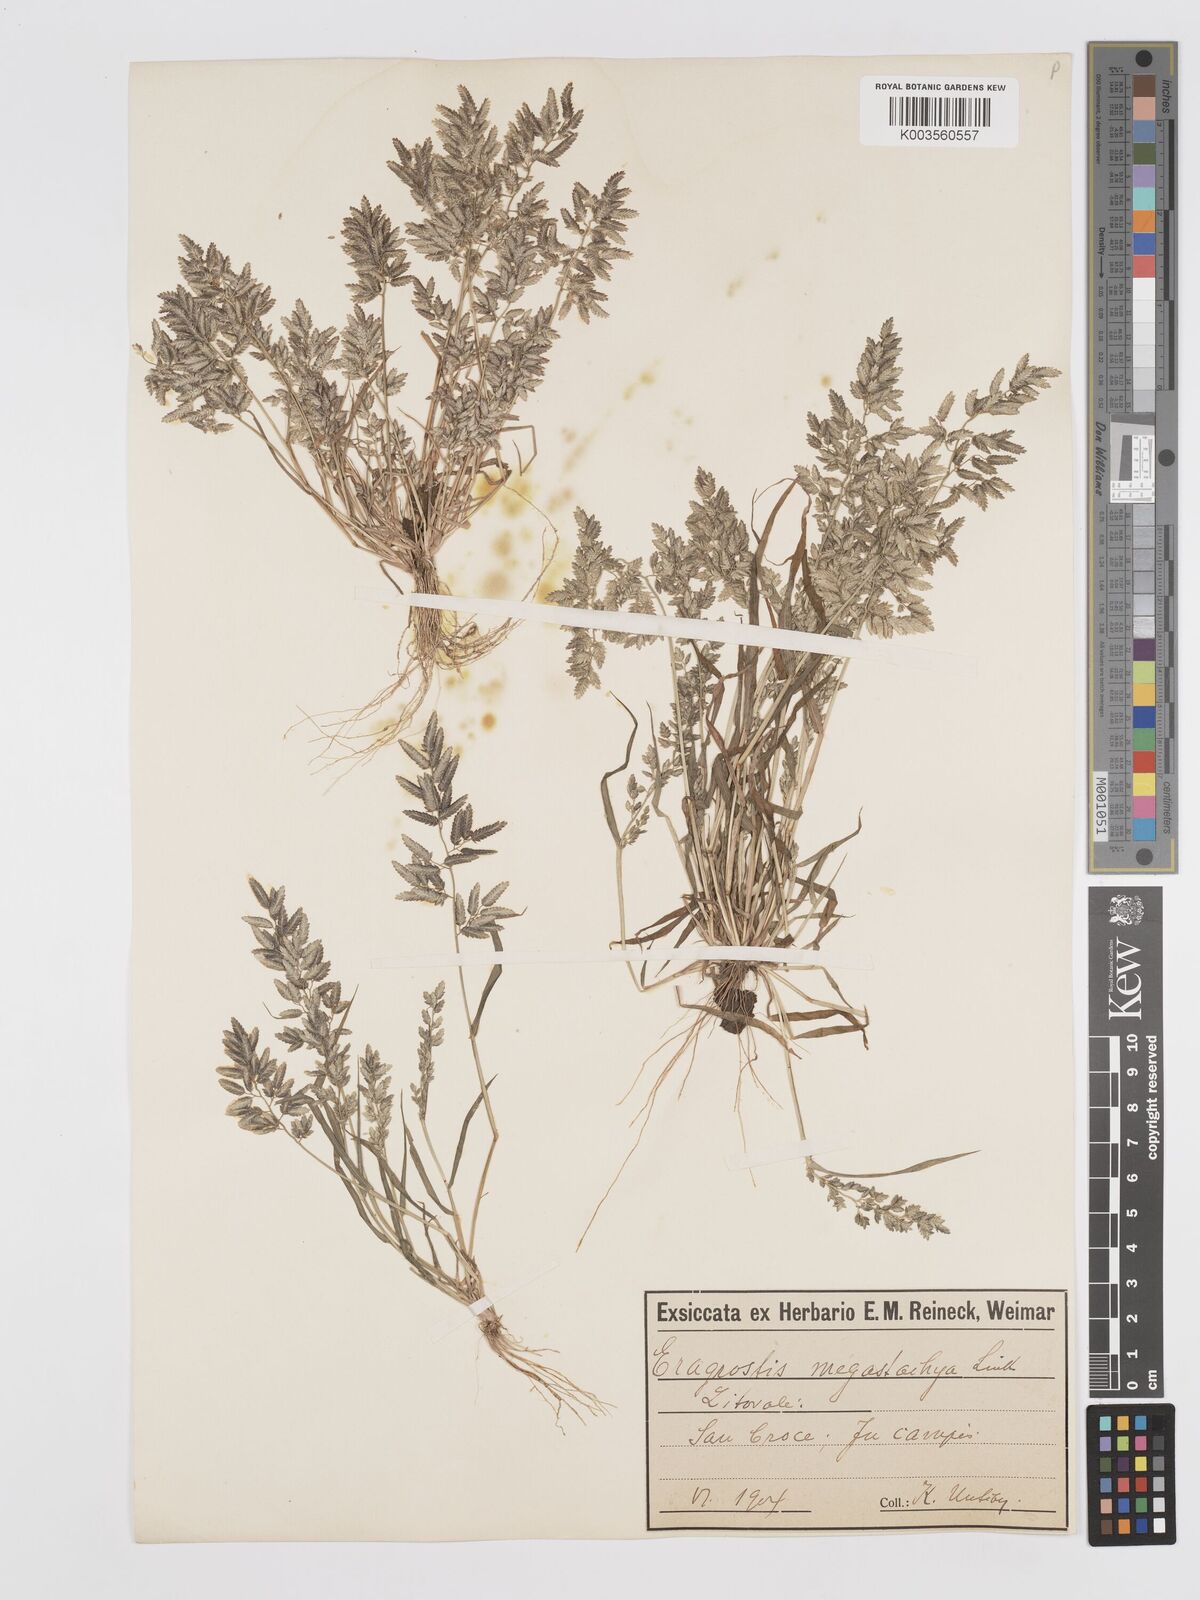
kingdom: Plantae
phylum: Tracheophyta
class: Liliopsida
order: Poales
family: Poaceae
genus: Eragrostis
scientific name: Eragrostis cilianensis
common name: Stinkgrass
